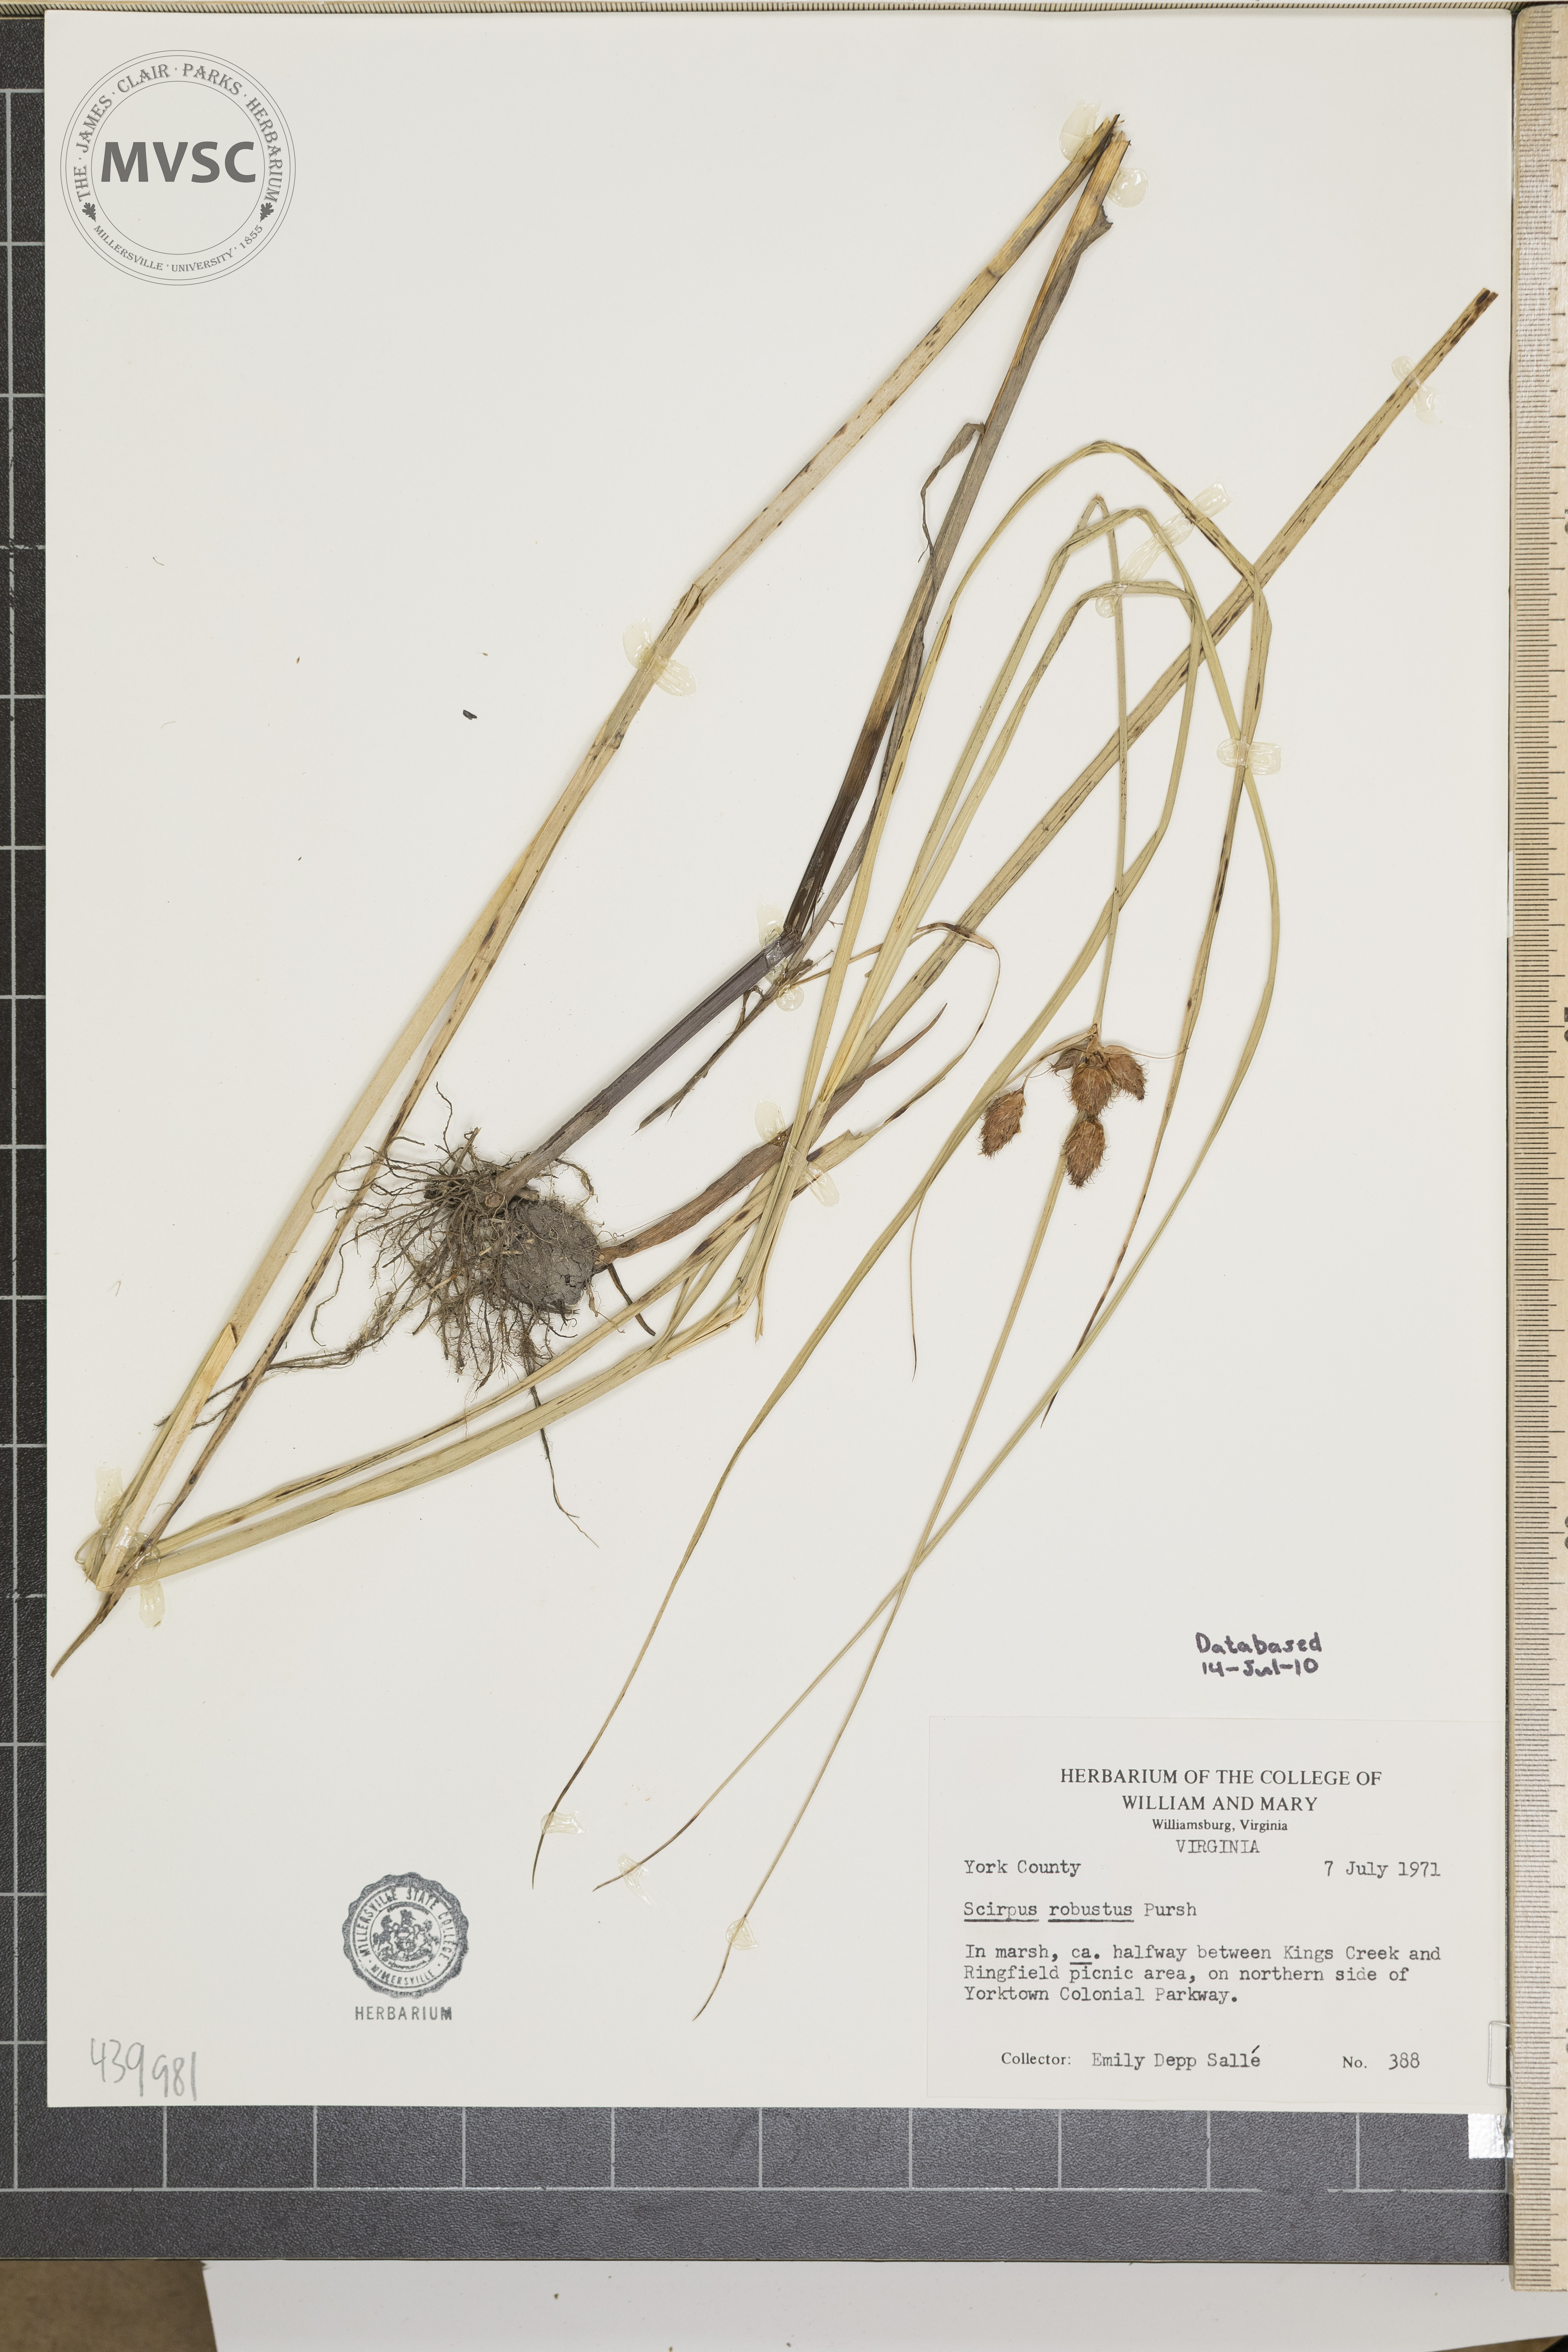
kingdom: Plantae
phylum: Tracheophyta
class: Liliopsida
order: Poales
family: Cyperaceae
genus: Bolboschoenus
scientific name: Bolboschoenus robustus
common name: Seacoast bulrush
